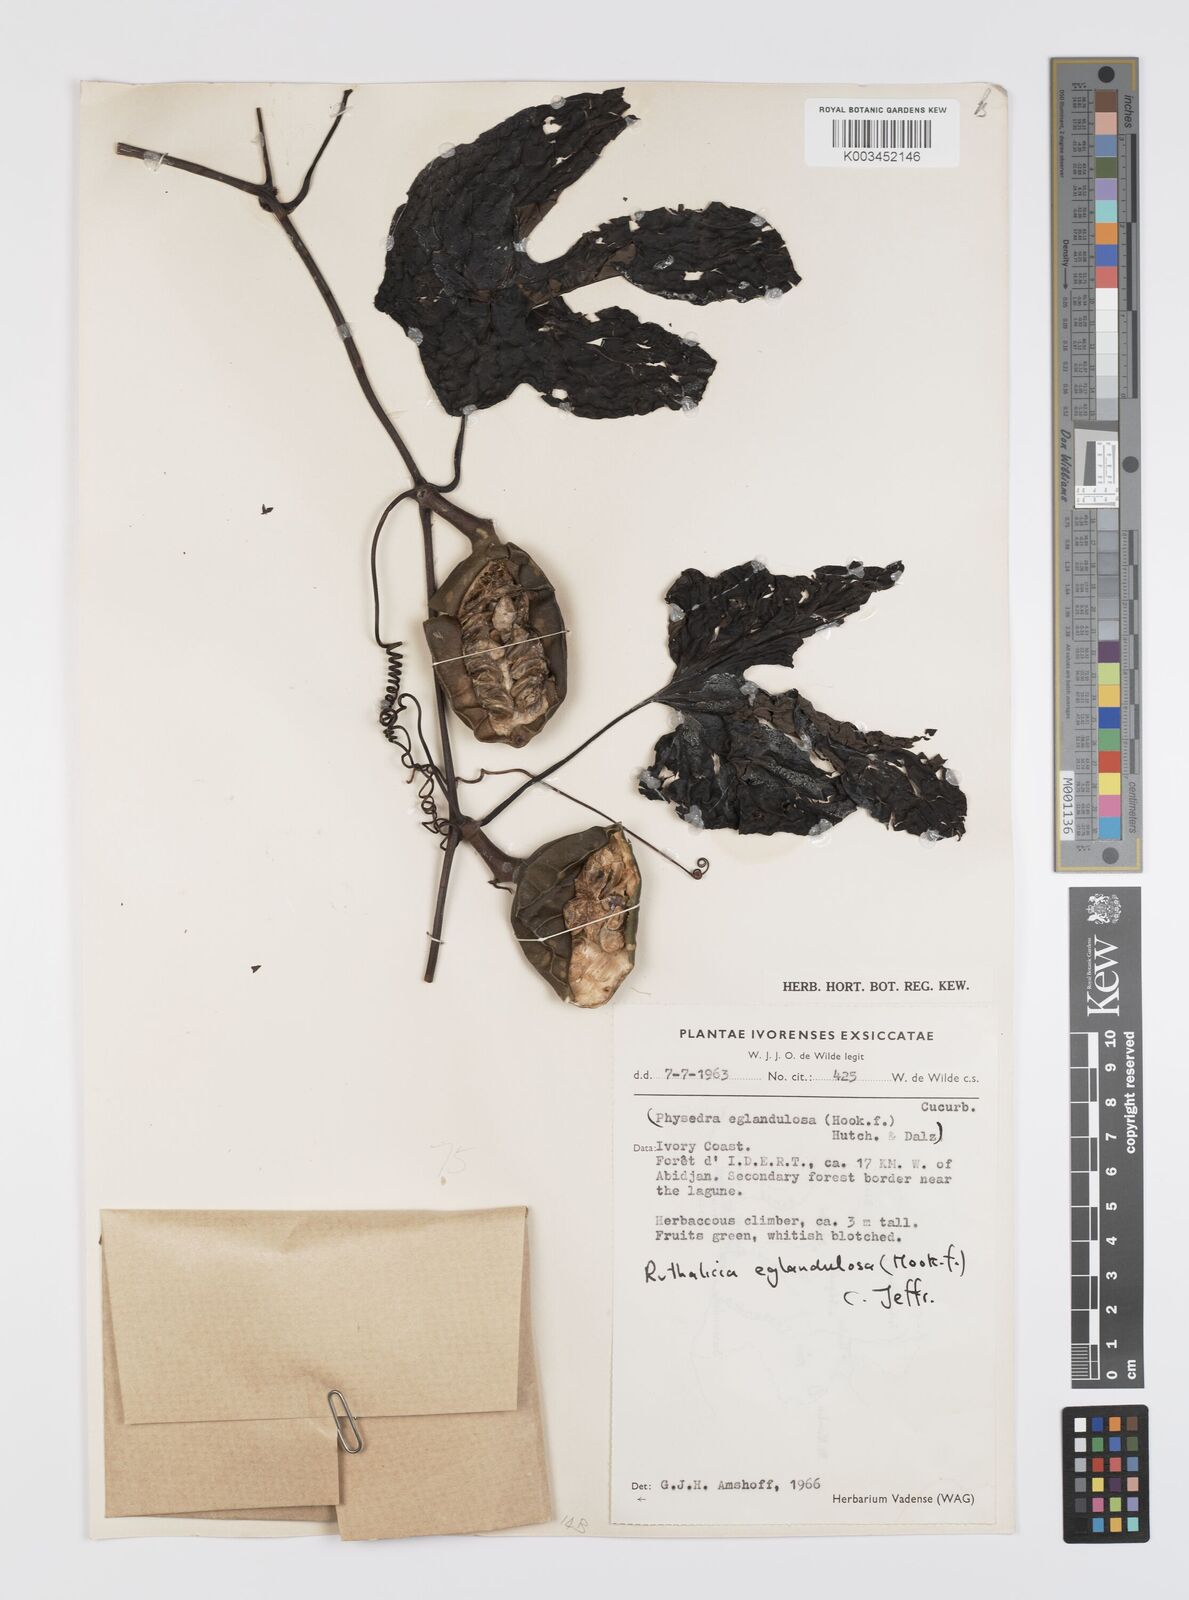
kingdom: Plantae
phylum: Tracheophyta
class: Magnoliopsida
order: Cucurbitales
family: Cucurbitaceae
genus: Ruthalicia
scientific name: Ruthalicia eglandulosa
